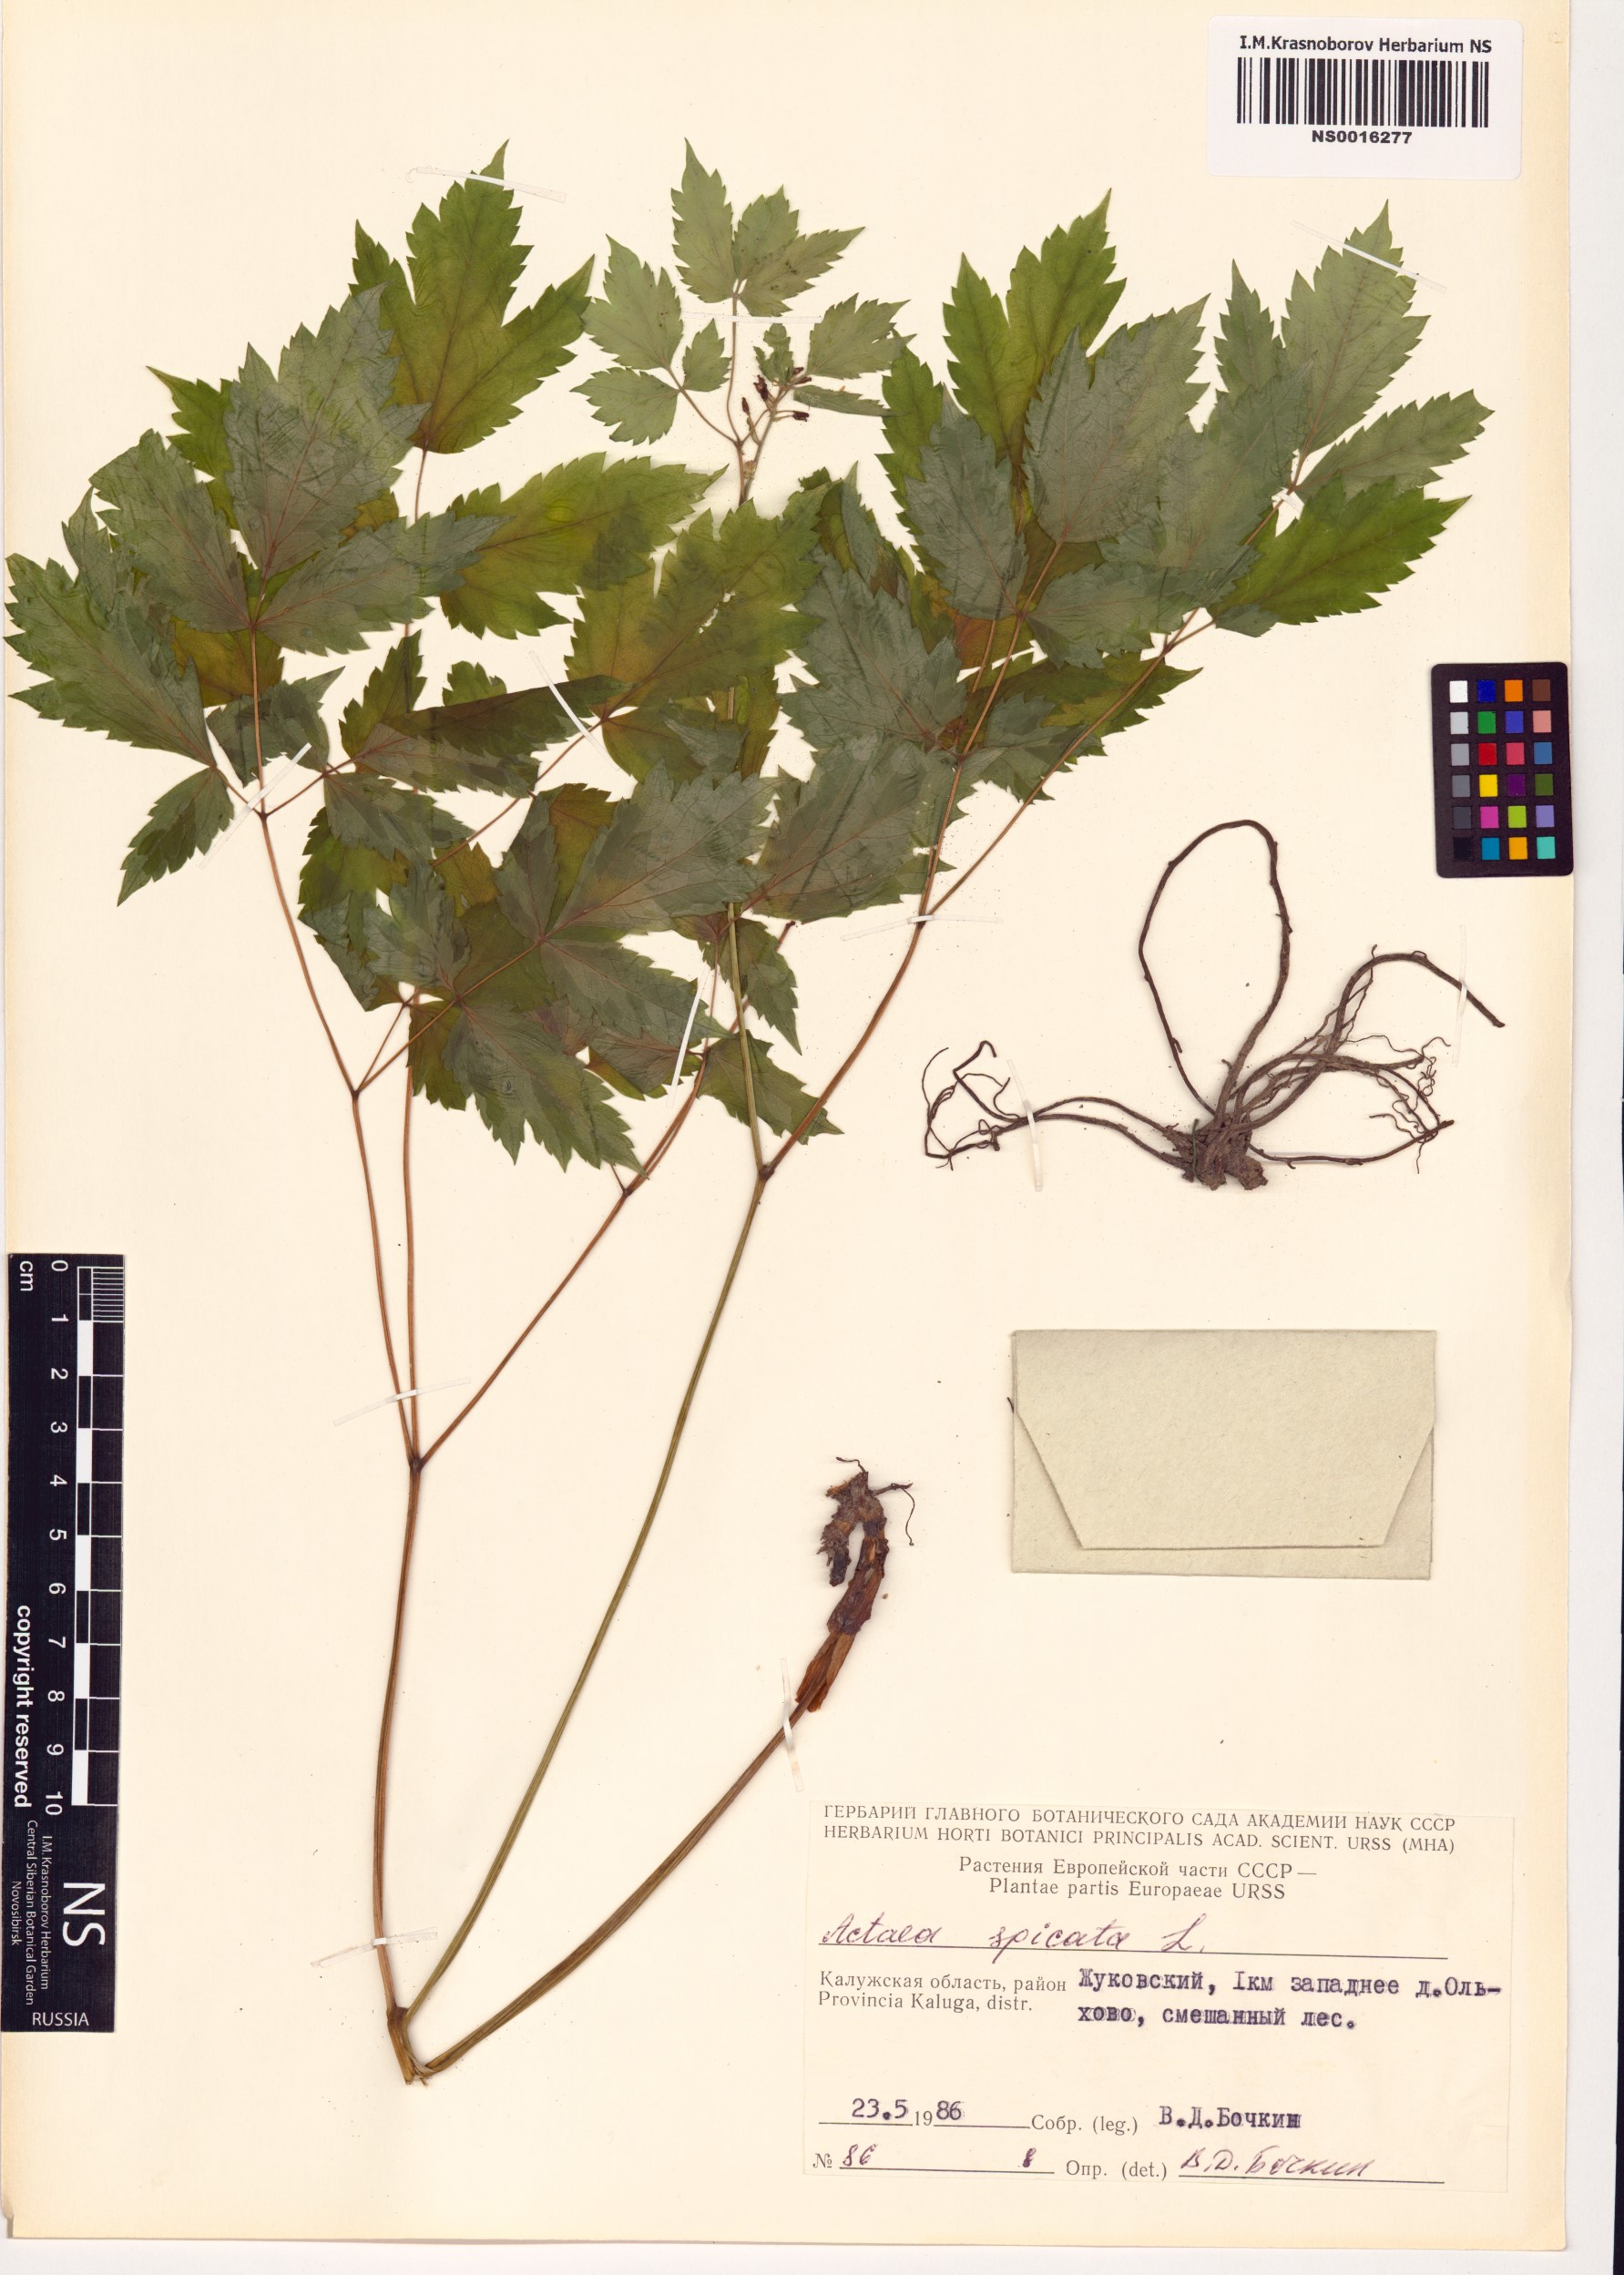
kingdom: Plantae
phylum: Tracheophyta
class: Magnoliopsida
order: Ranunculales
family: Ranunculaceae
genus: Actaea
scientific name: Actaea spicata
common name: Baneberry
